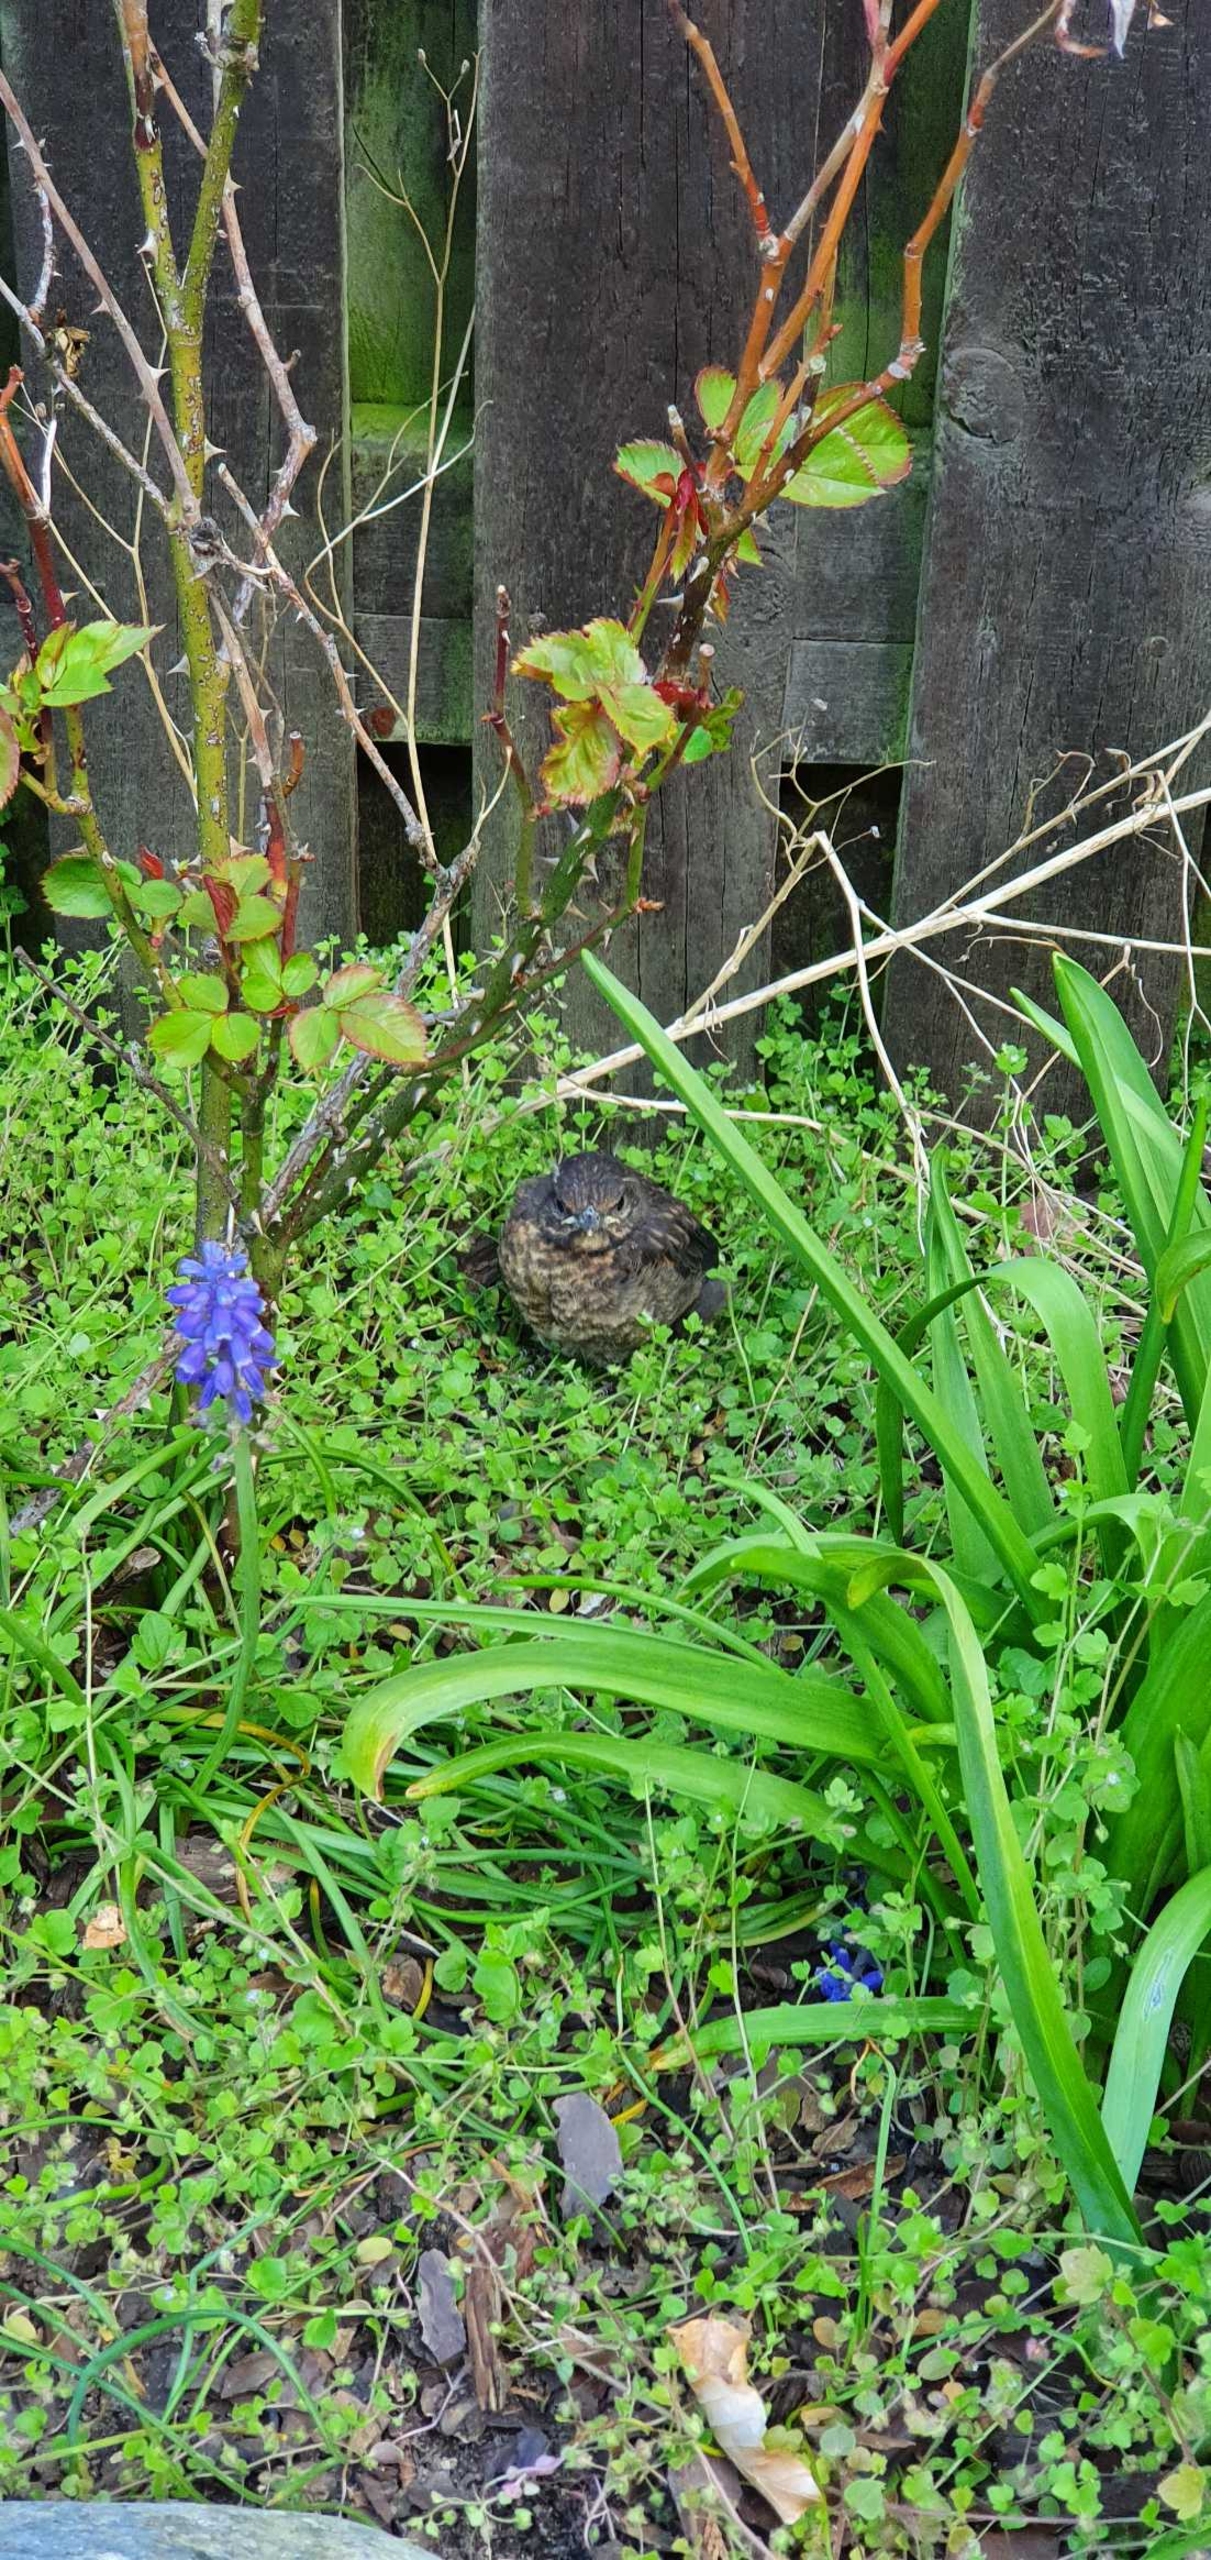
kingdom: Animalia
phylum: Chordata
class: Aves
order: Passeriformes
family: Turdidae
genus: Turdus
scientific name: Turdus merula
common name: Solsort
